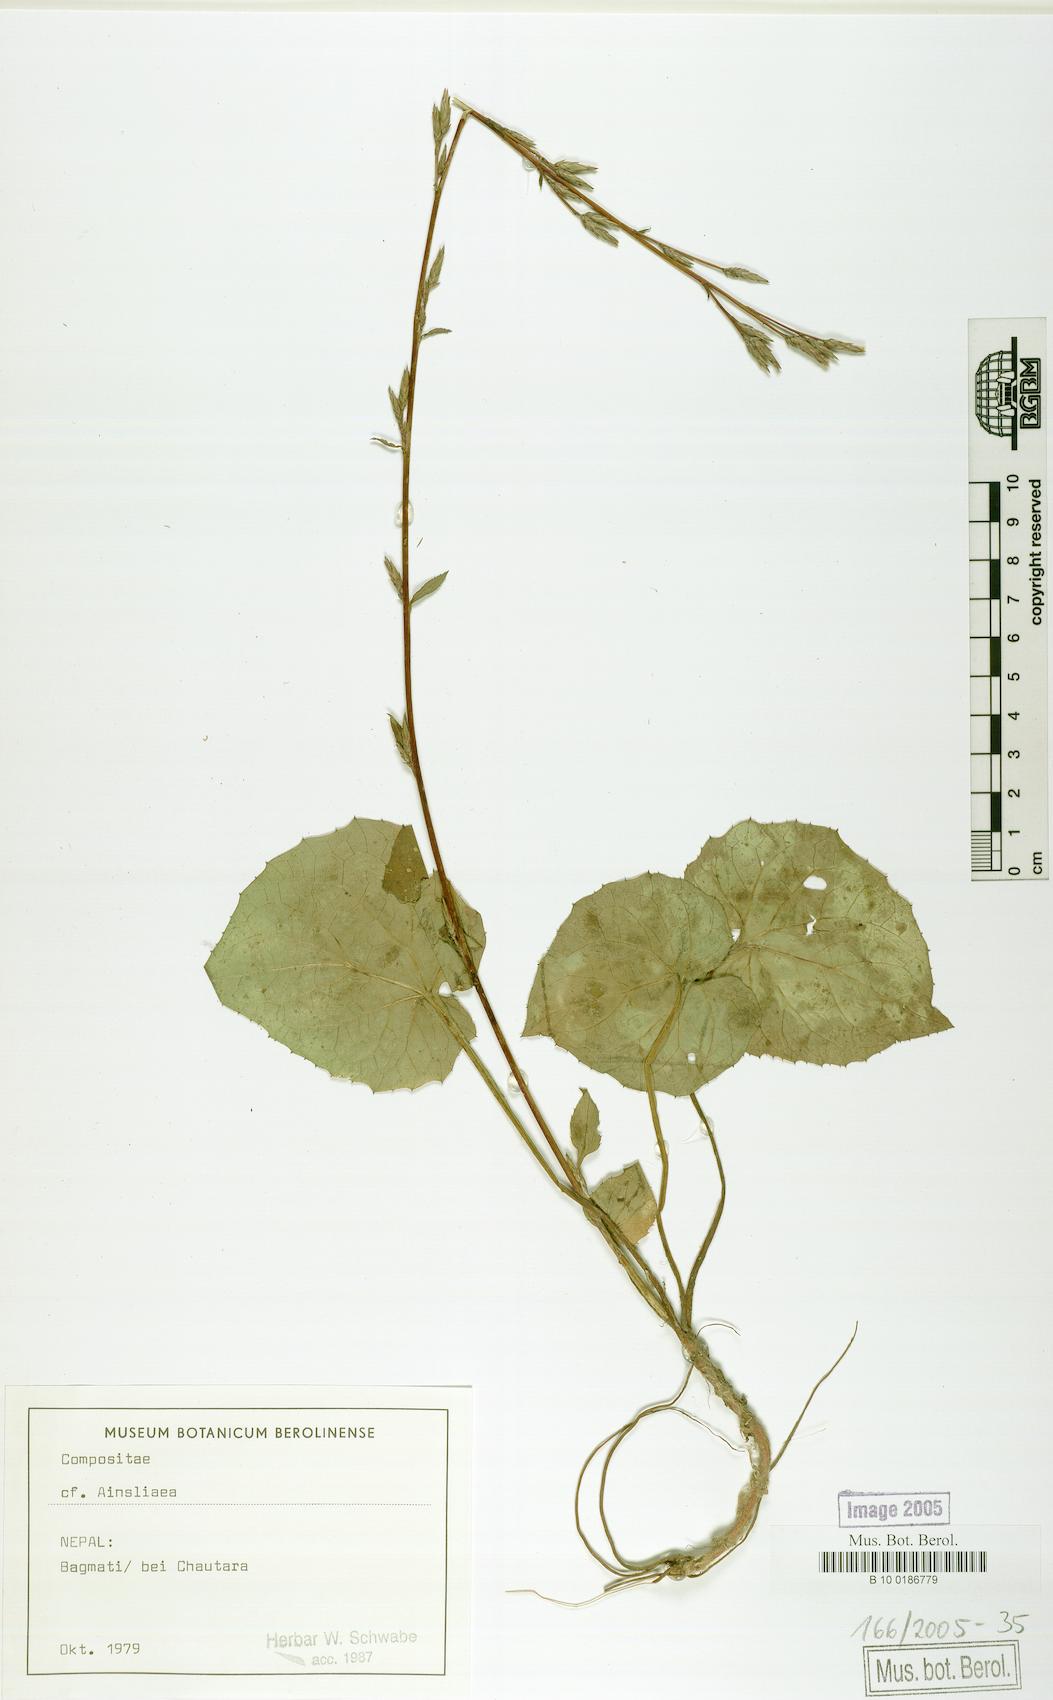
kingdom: Plantae
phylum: Tracheophyta
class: Magnoliopsida
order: Asterales
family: Asteraceae
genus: Ainsliaea
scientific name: Ainsliaea
